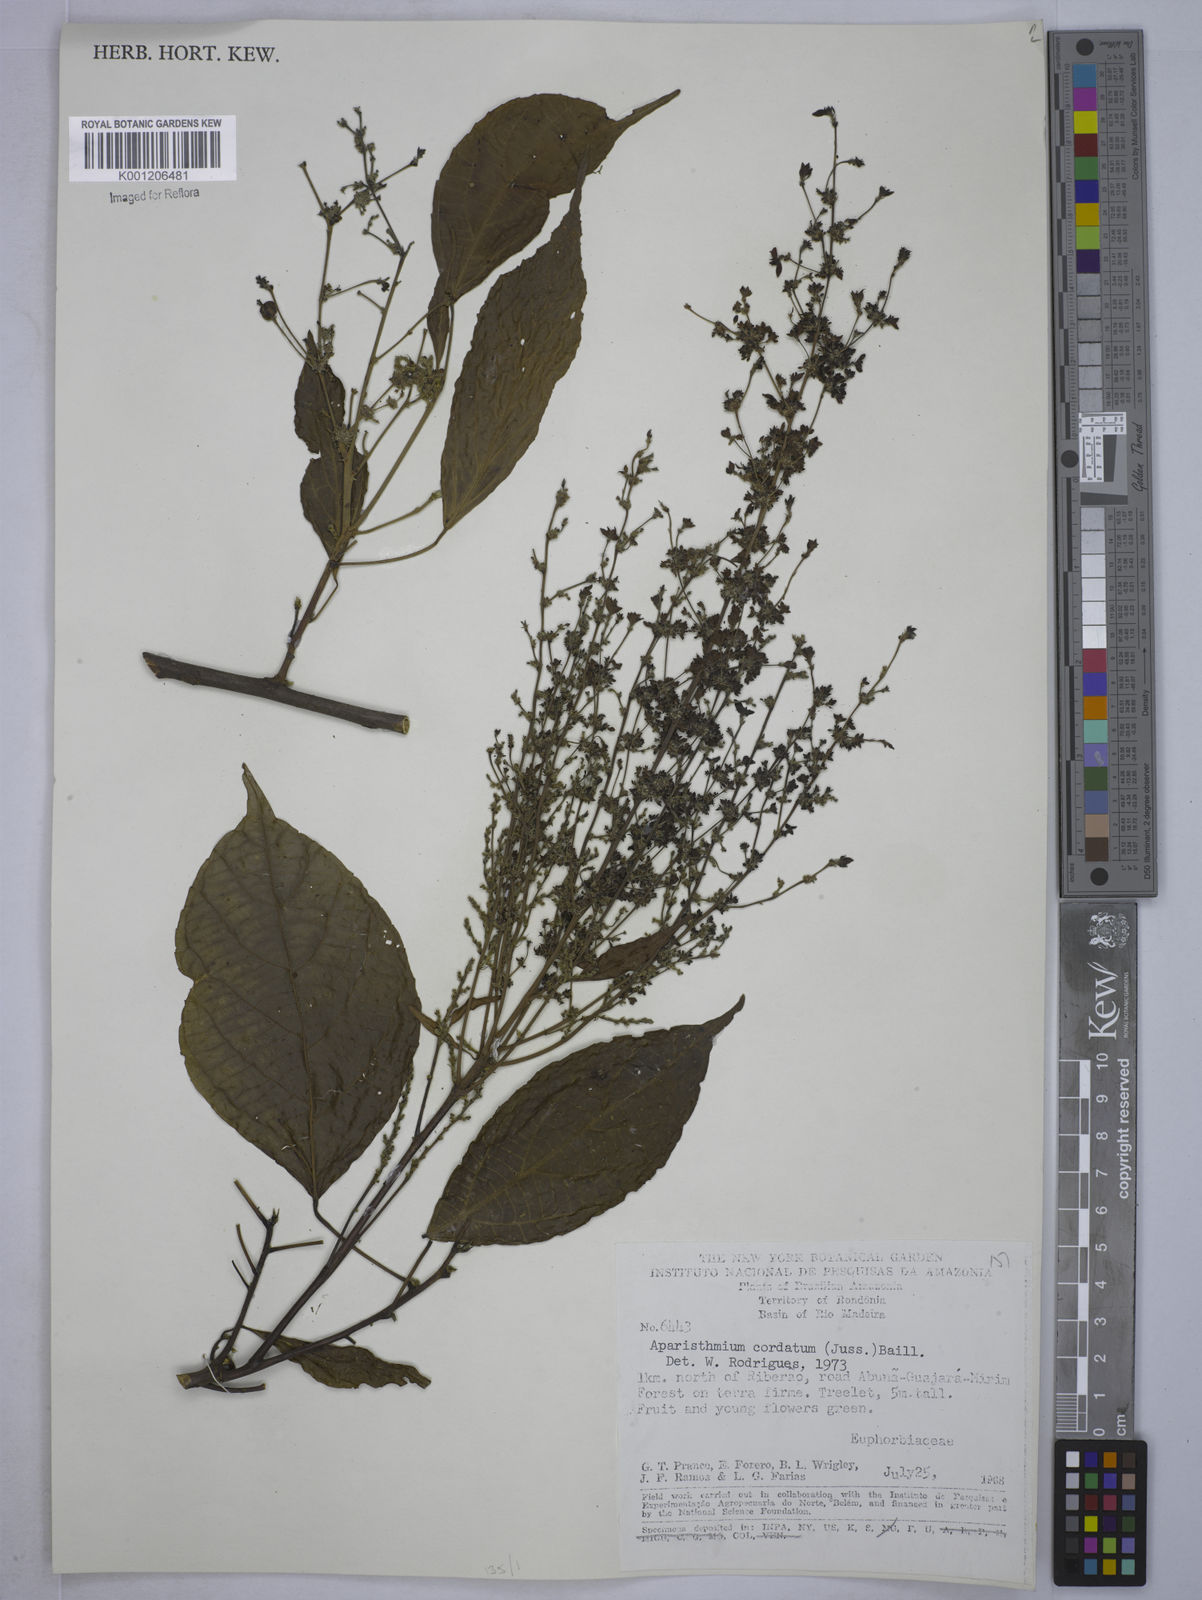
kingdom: Plantae
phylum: Tracheophyta
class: Magnoliopsida
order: Malpighiales
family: Euphorbiaceae
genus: Aparisthmium
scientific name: Aparisthmium cordatum
